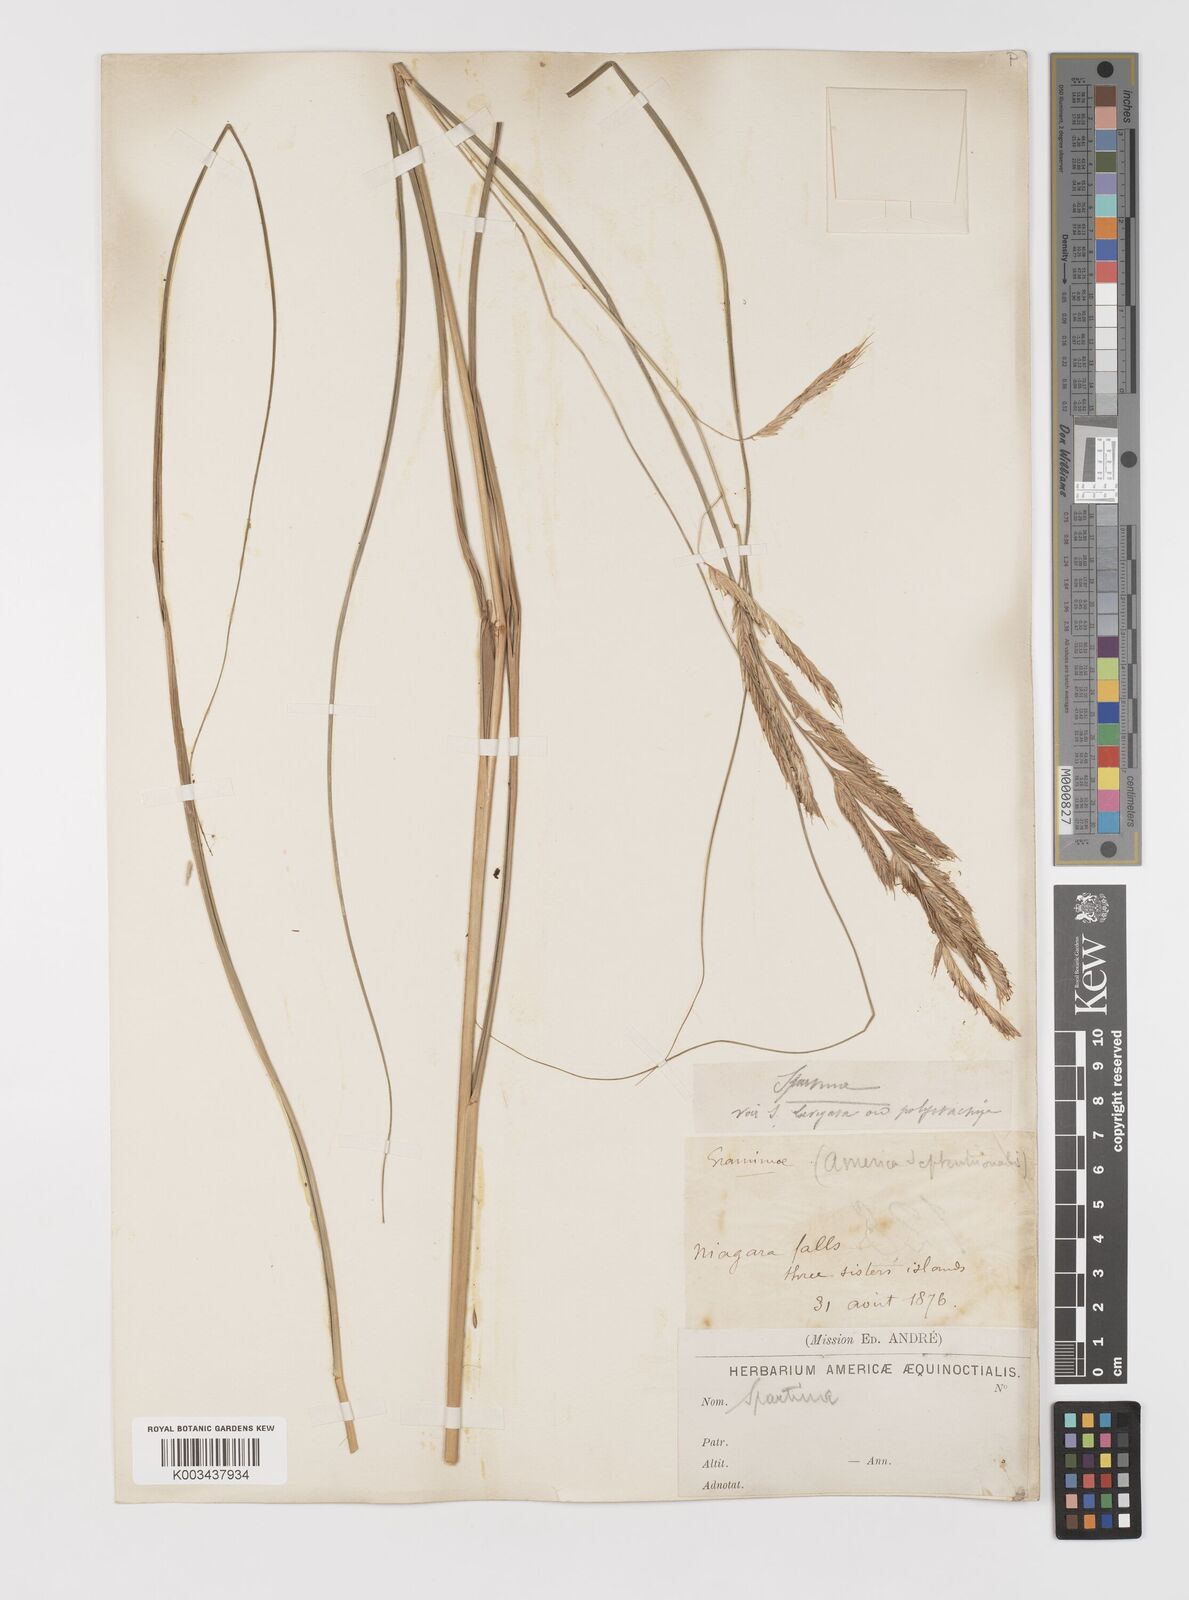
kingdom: Plantae
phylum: Tracheophyta
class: Liliopsida
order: Poales
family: Poaceae
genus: Sporobolus
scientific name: Sporobolus michauxianus
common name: Freshwater cordgrass
